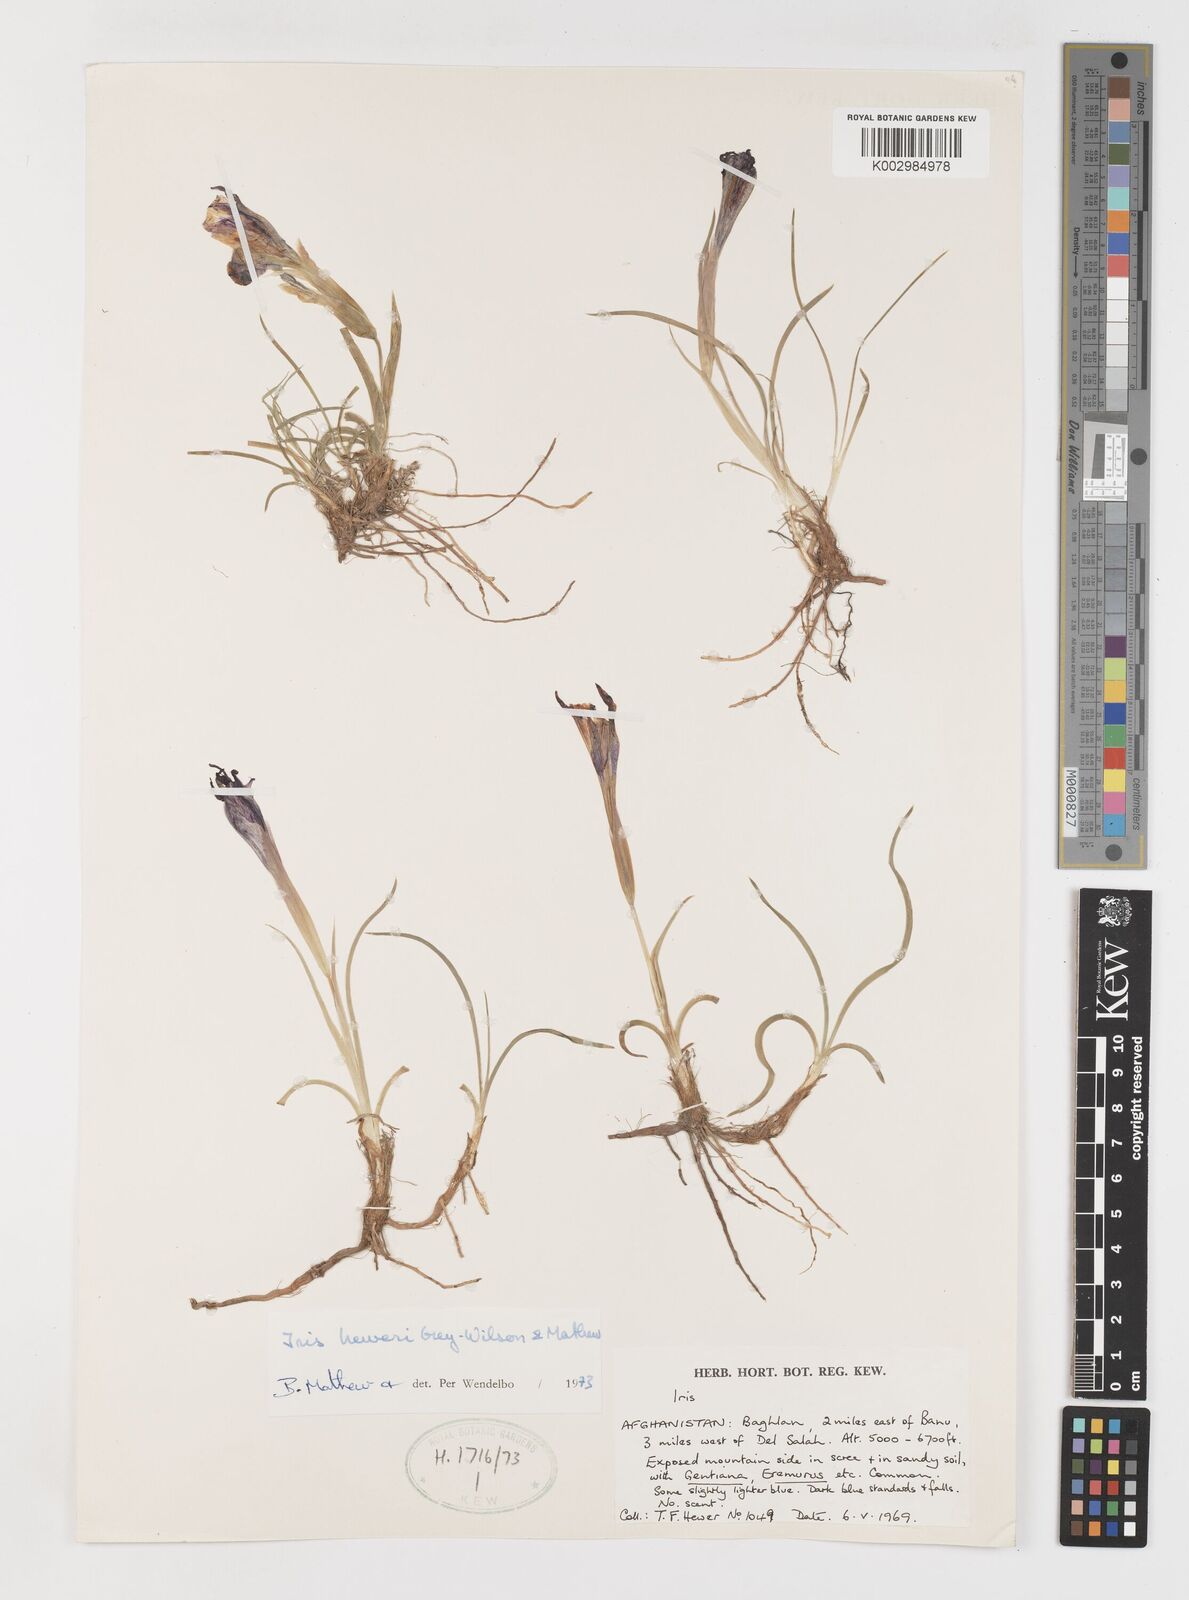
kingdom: Plantae
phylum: Tracheophyta
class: Liliopsida
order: Asparagales
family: Iridaceae
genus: Iris
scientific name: Iris heweri
